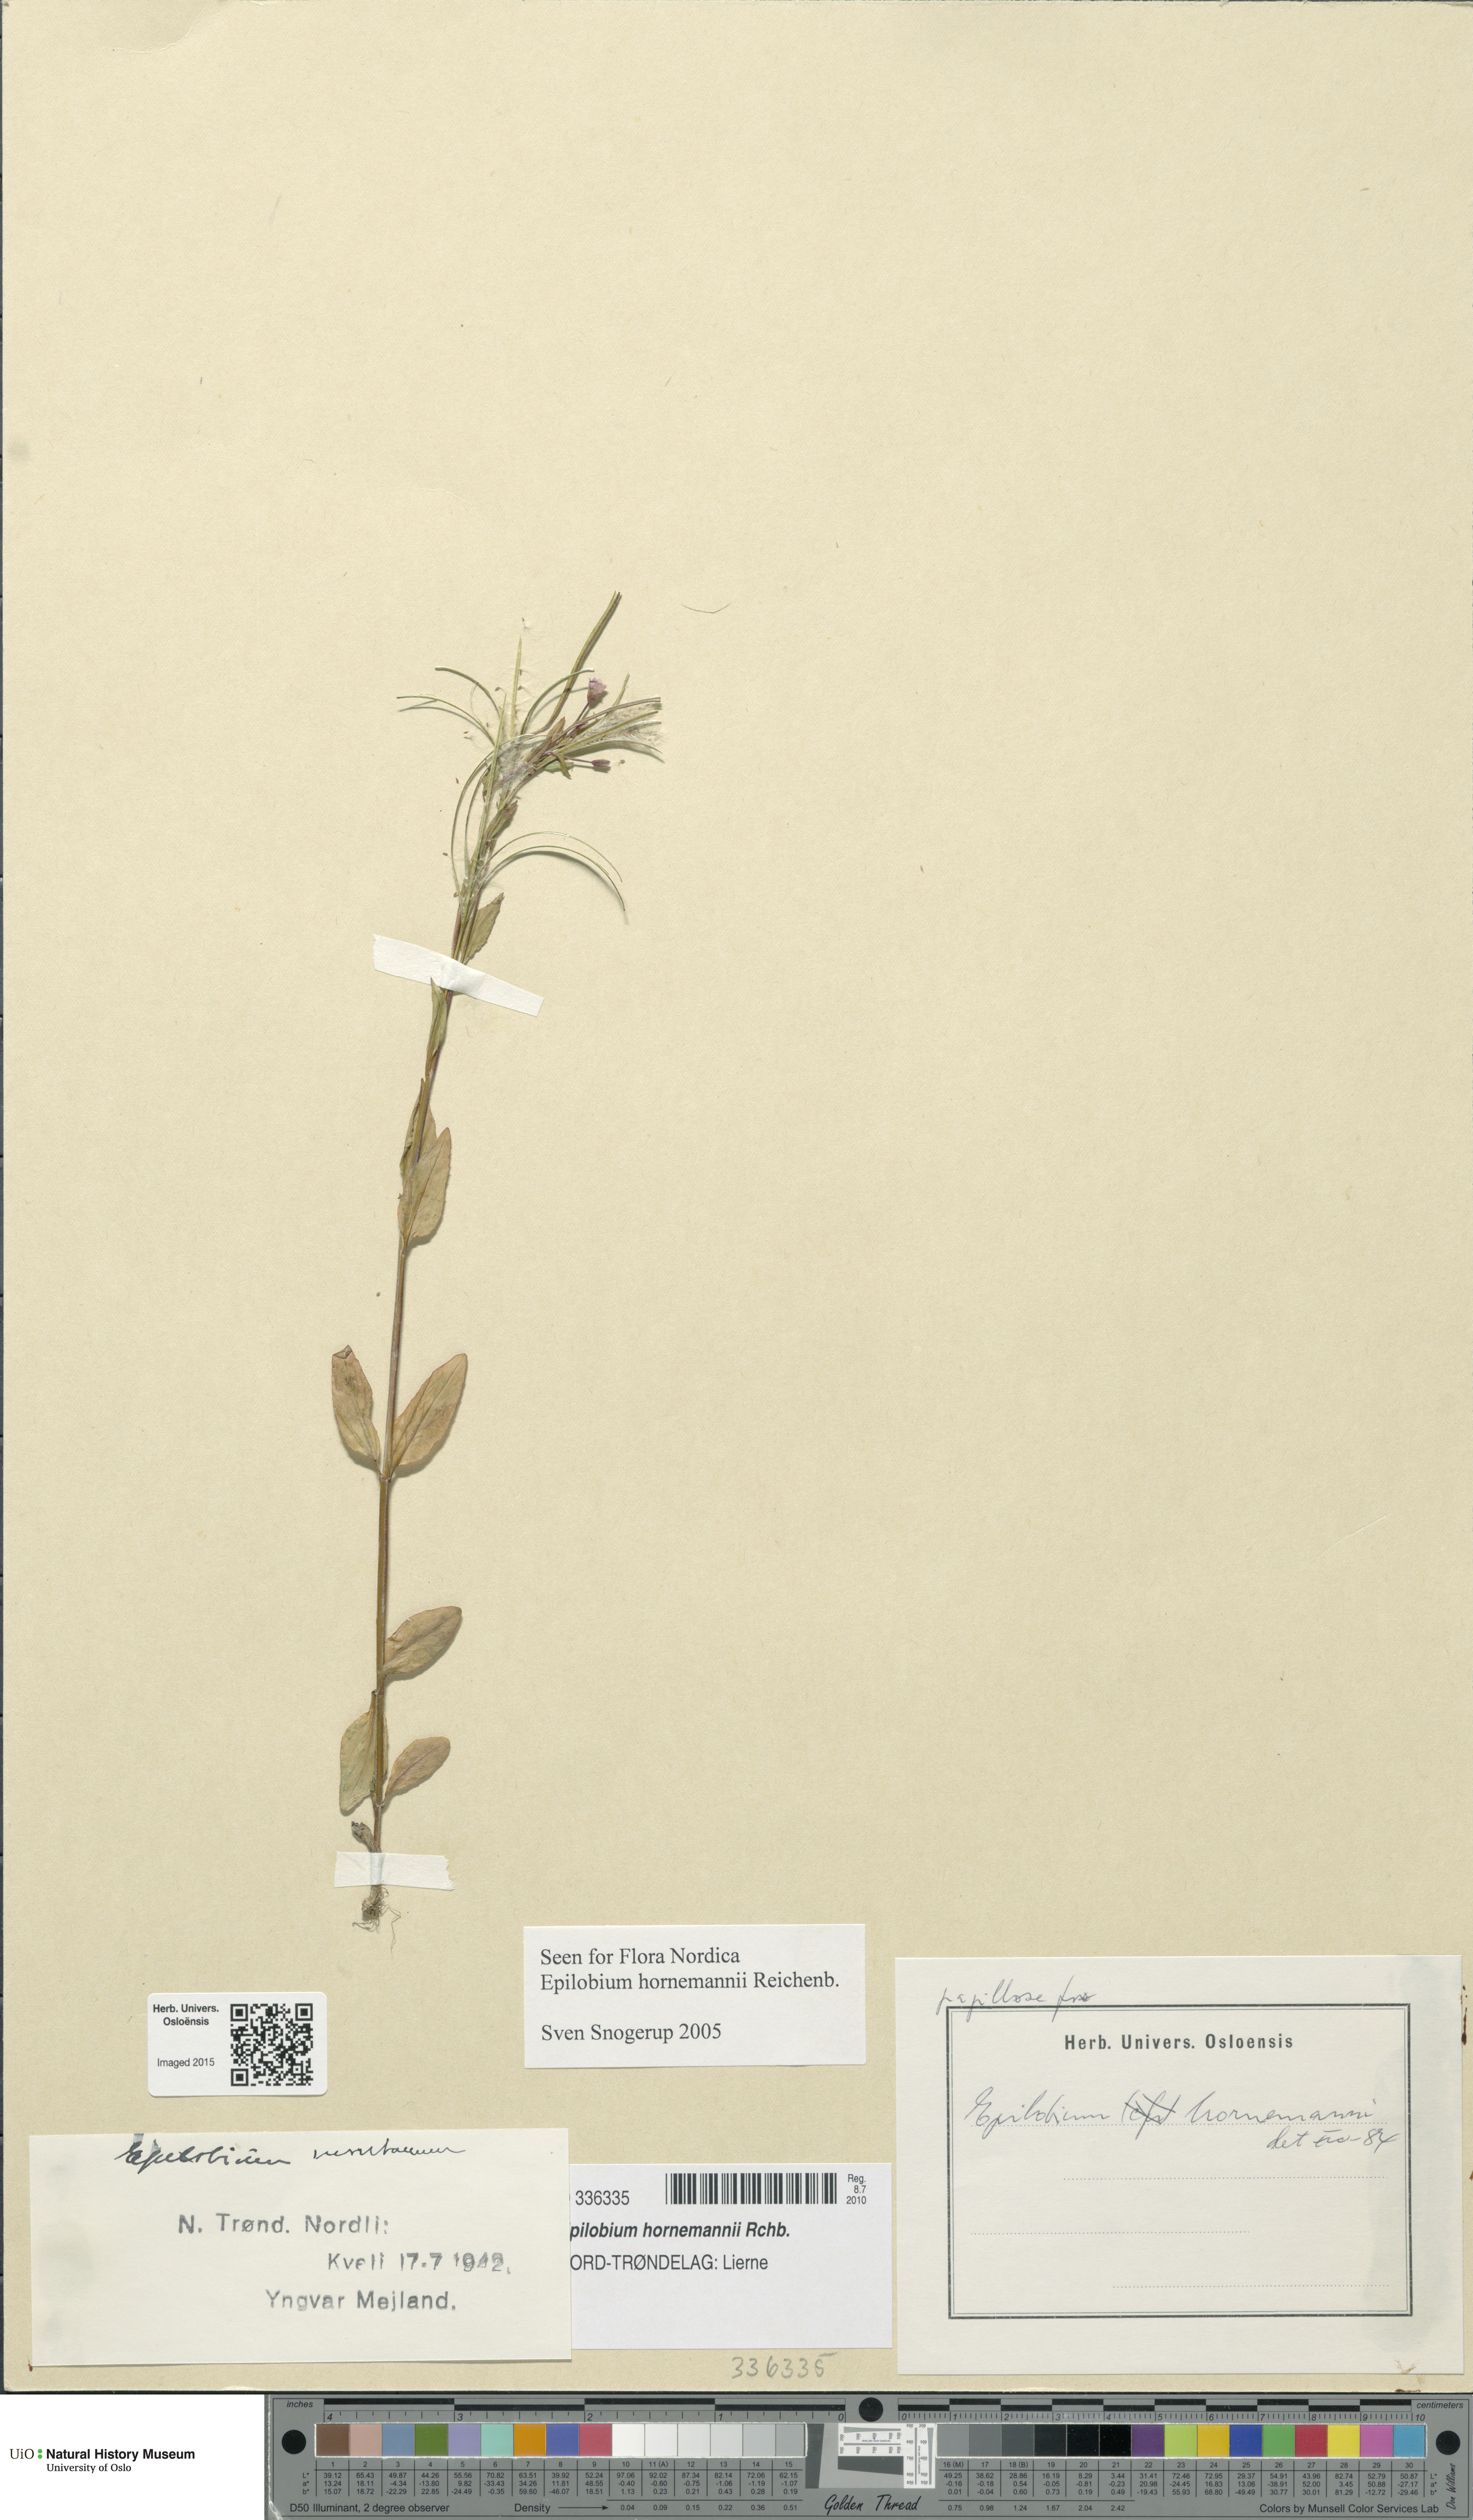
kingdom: Plantae
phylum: Tracheophyta
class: Magnoliopsida
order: Myrtales
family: Onagraceae
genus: Epilobium
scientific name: Epilobium hornemannii
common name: Hornemann's willowherb
